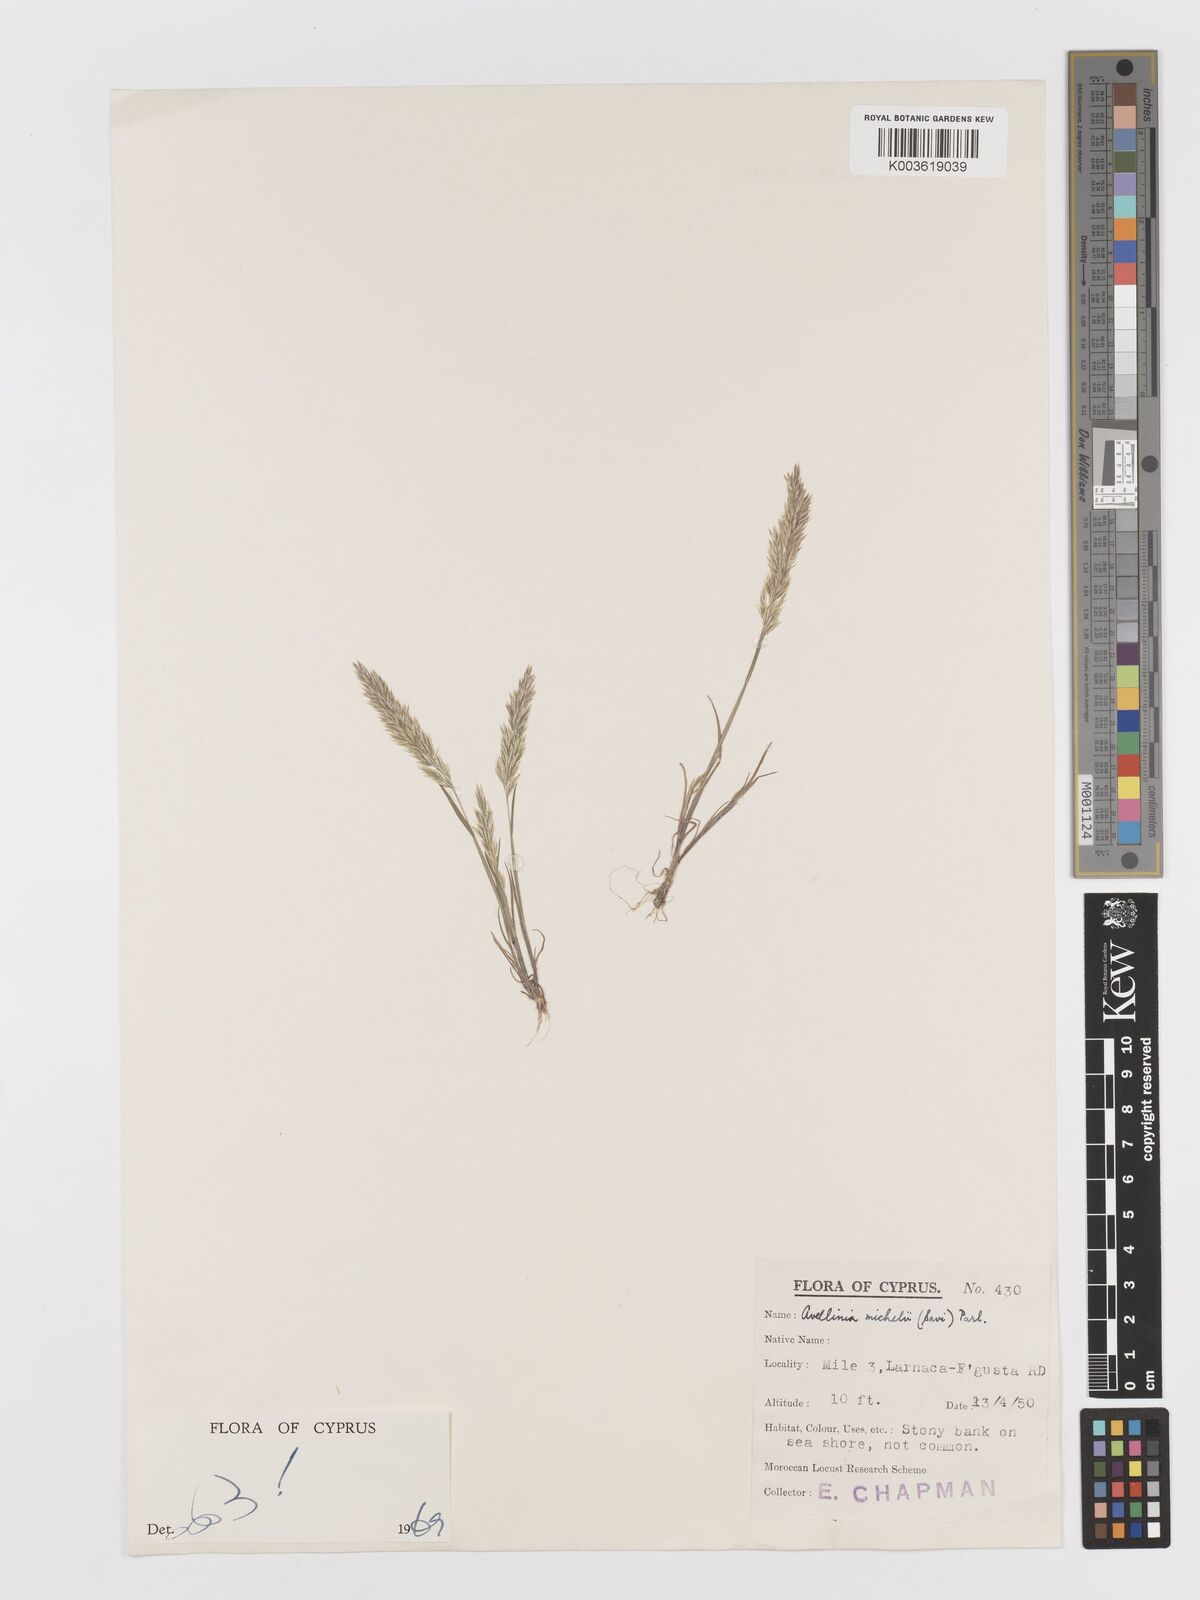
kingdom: Plantae
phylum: Tracheophyta
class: Liliopsida
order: Poales
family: Poaceae
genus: Avellinia
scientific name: Avellinia festucoides
